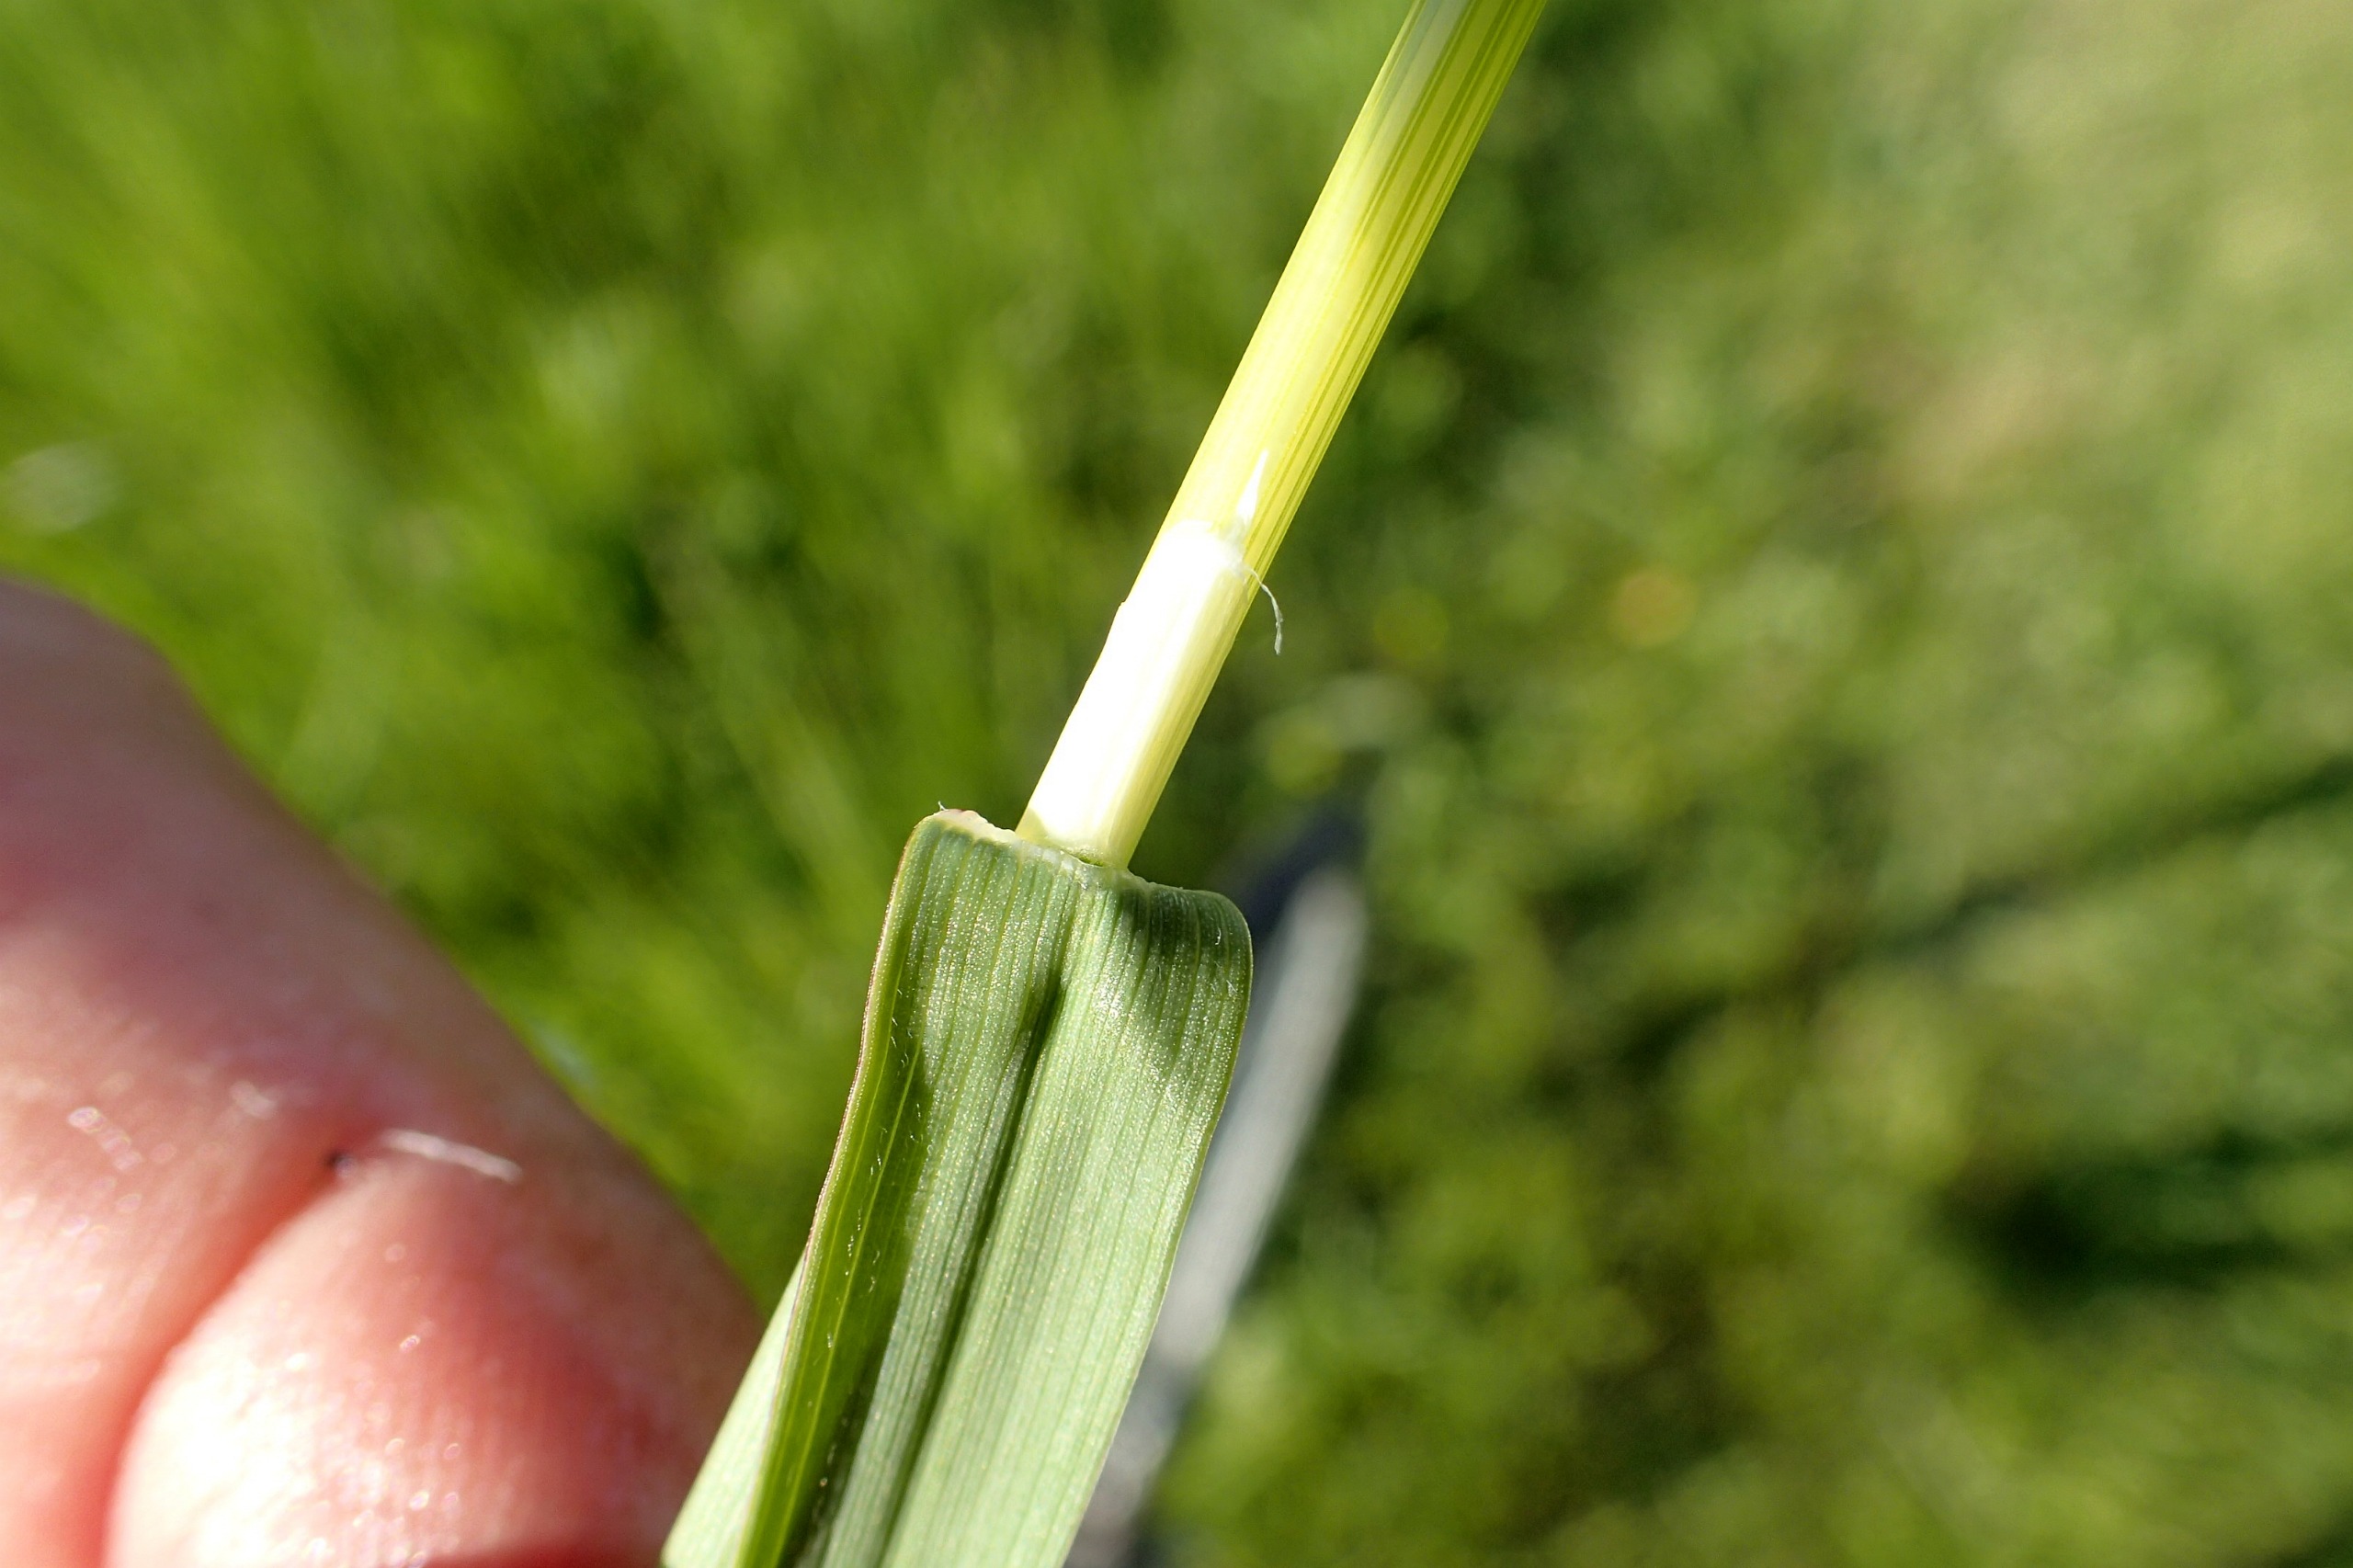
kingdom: Plantae
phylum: Tracheophyta
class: Liliopsida
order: Poales
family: Poaceae
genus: Avenula
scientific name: Avenula pubescens
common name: Dunet havre
